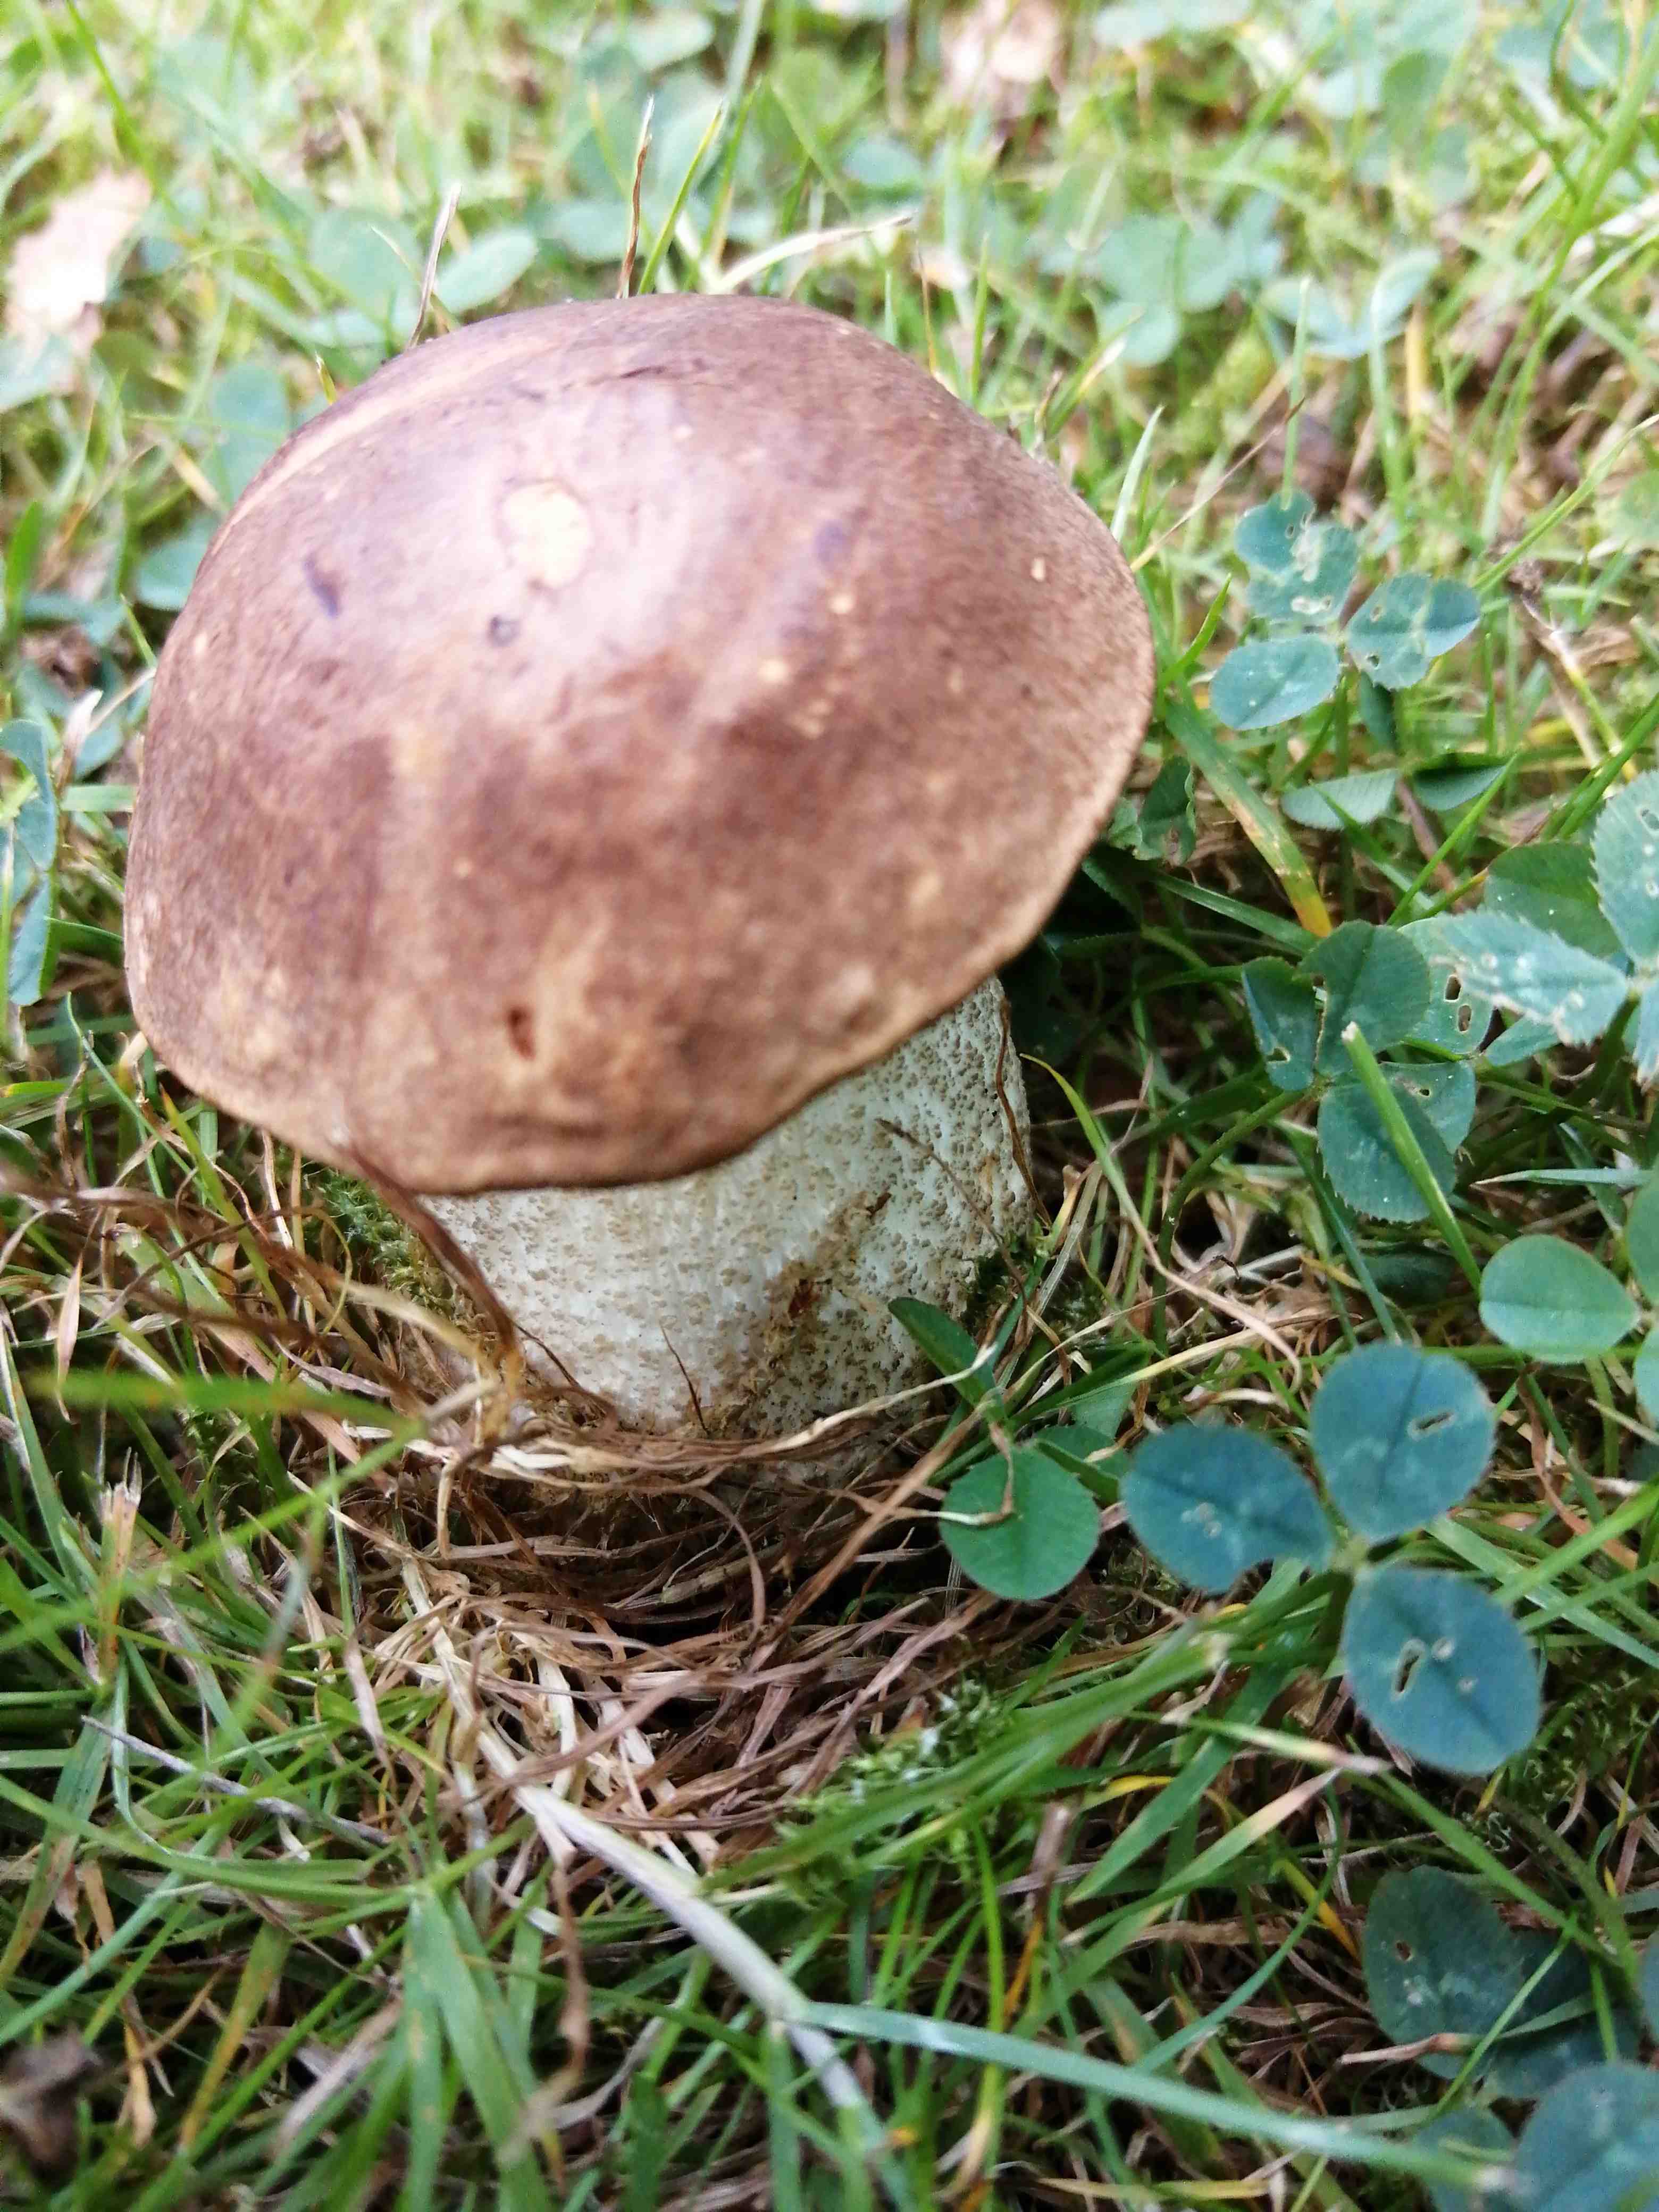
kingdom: Fungi
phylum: Basidiomycota
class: Agaricomycetes
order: Boletales
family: Boletaceae
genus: Leccinum
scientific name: Leccinum scabrum
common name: brun skælrørhat
